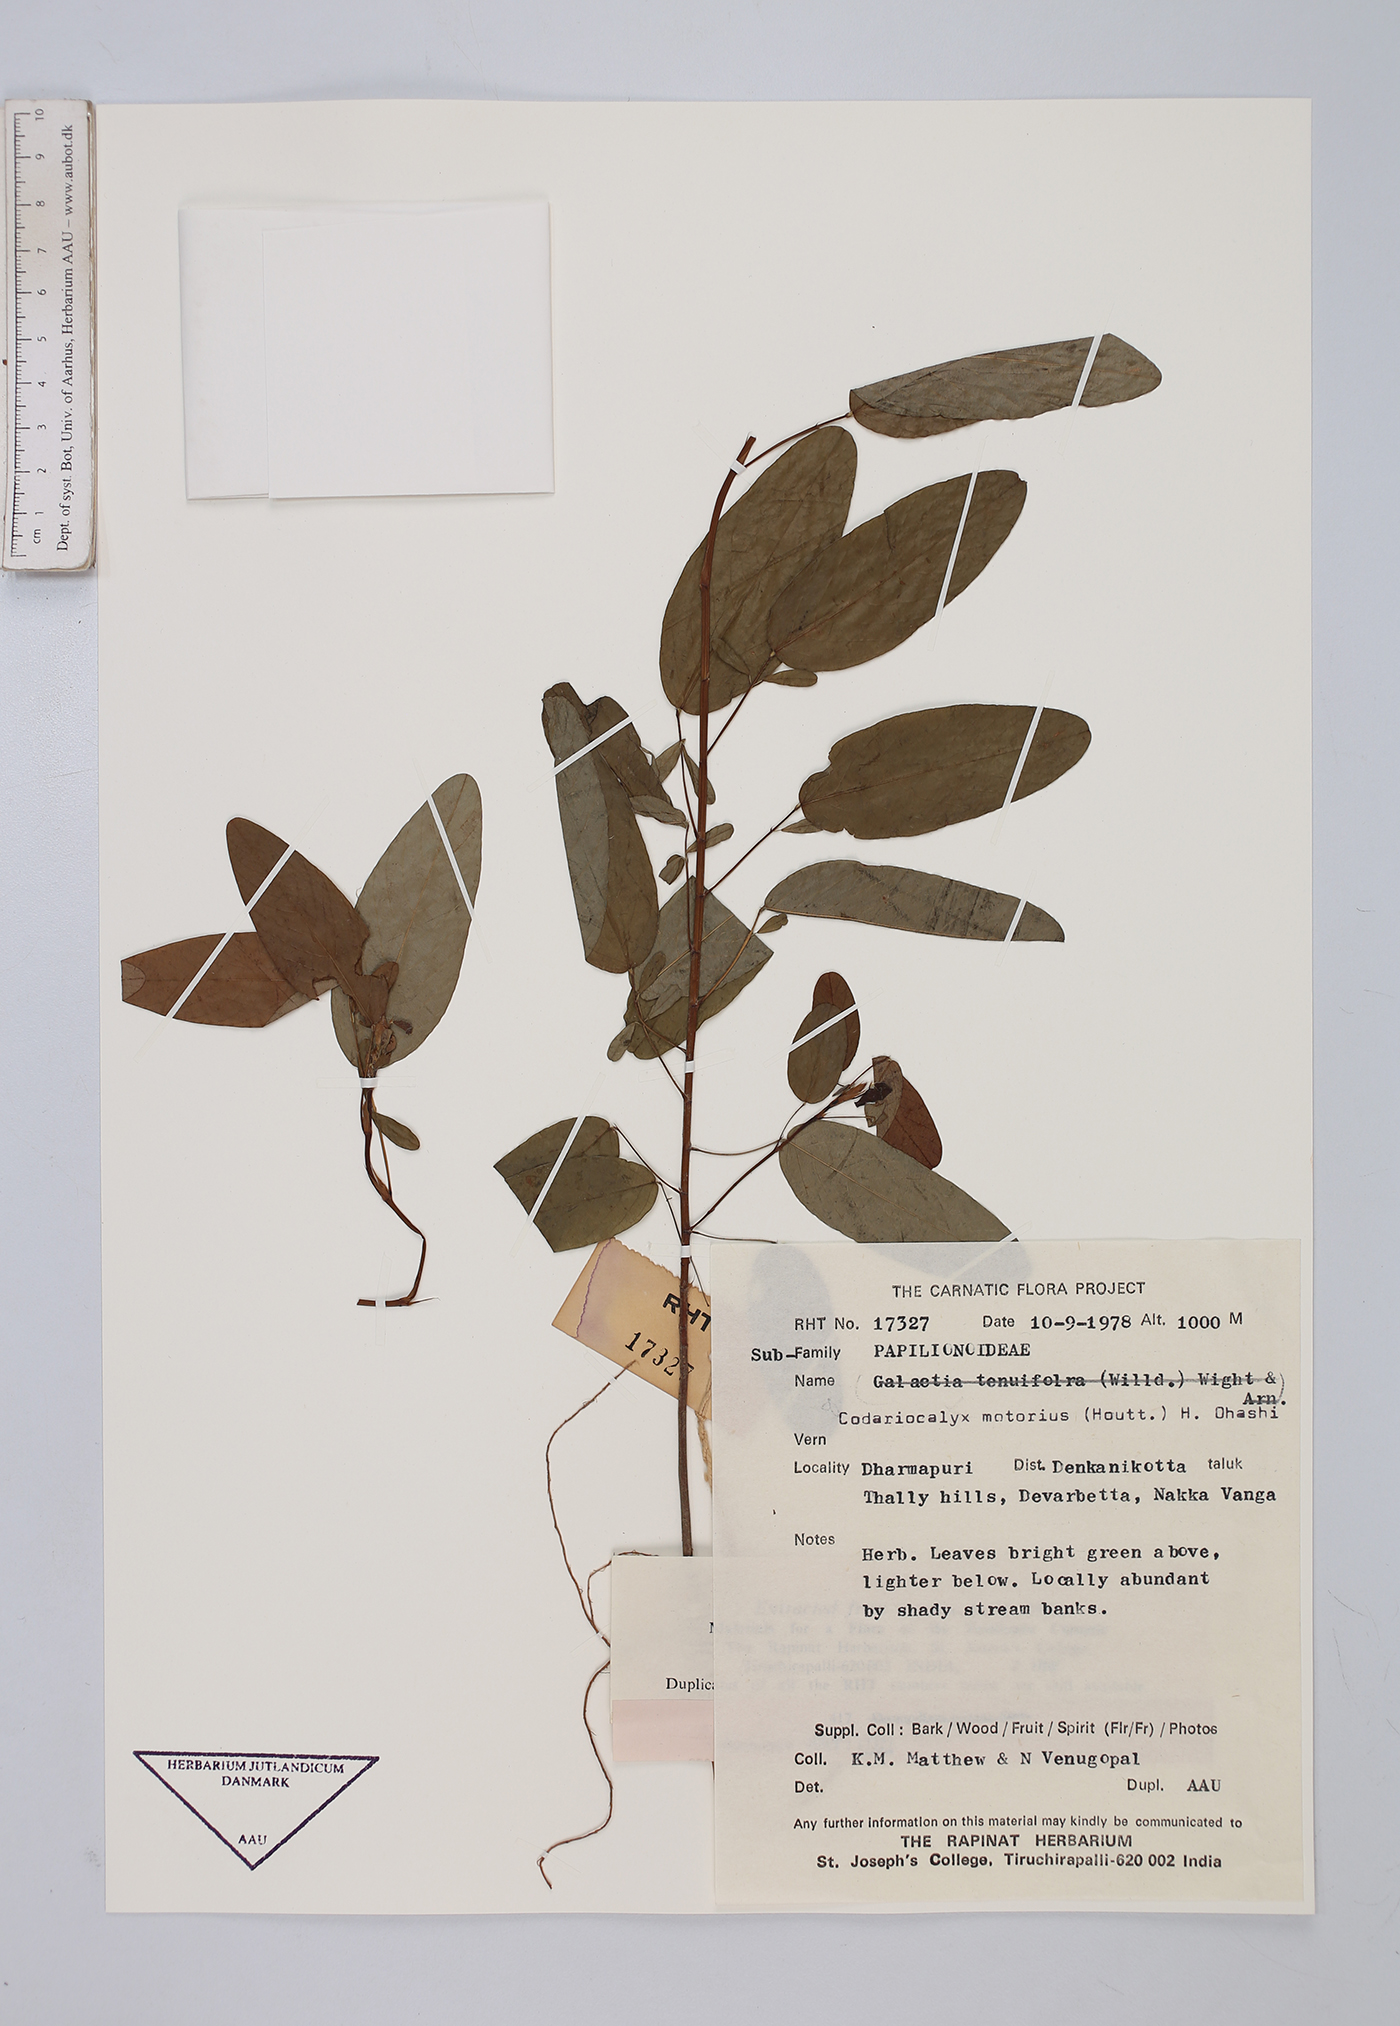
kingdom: Plantae
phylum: Tracheophyta
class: Magnoliopsida
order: Fabales
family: Fabaceae
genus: Codariocalyx
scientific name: Codariocalyx motorius
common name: Telegraph-plant
